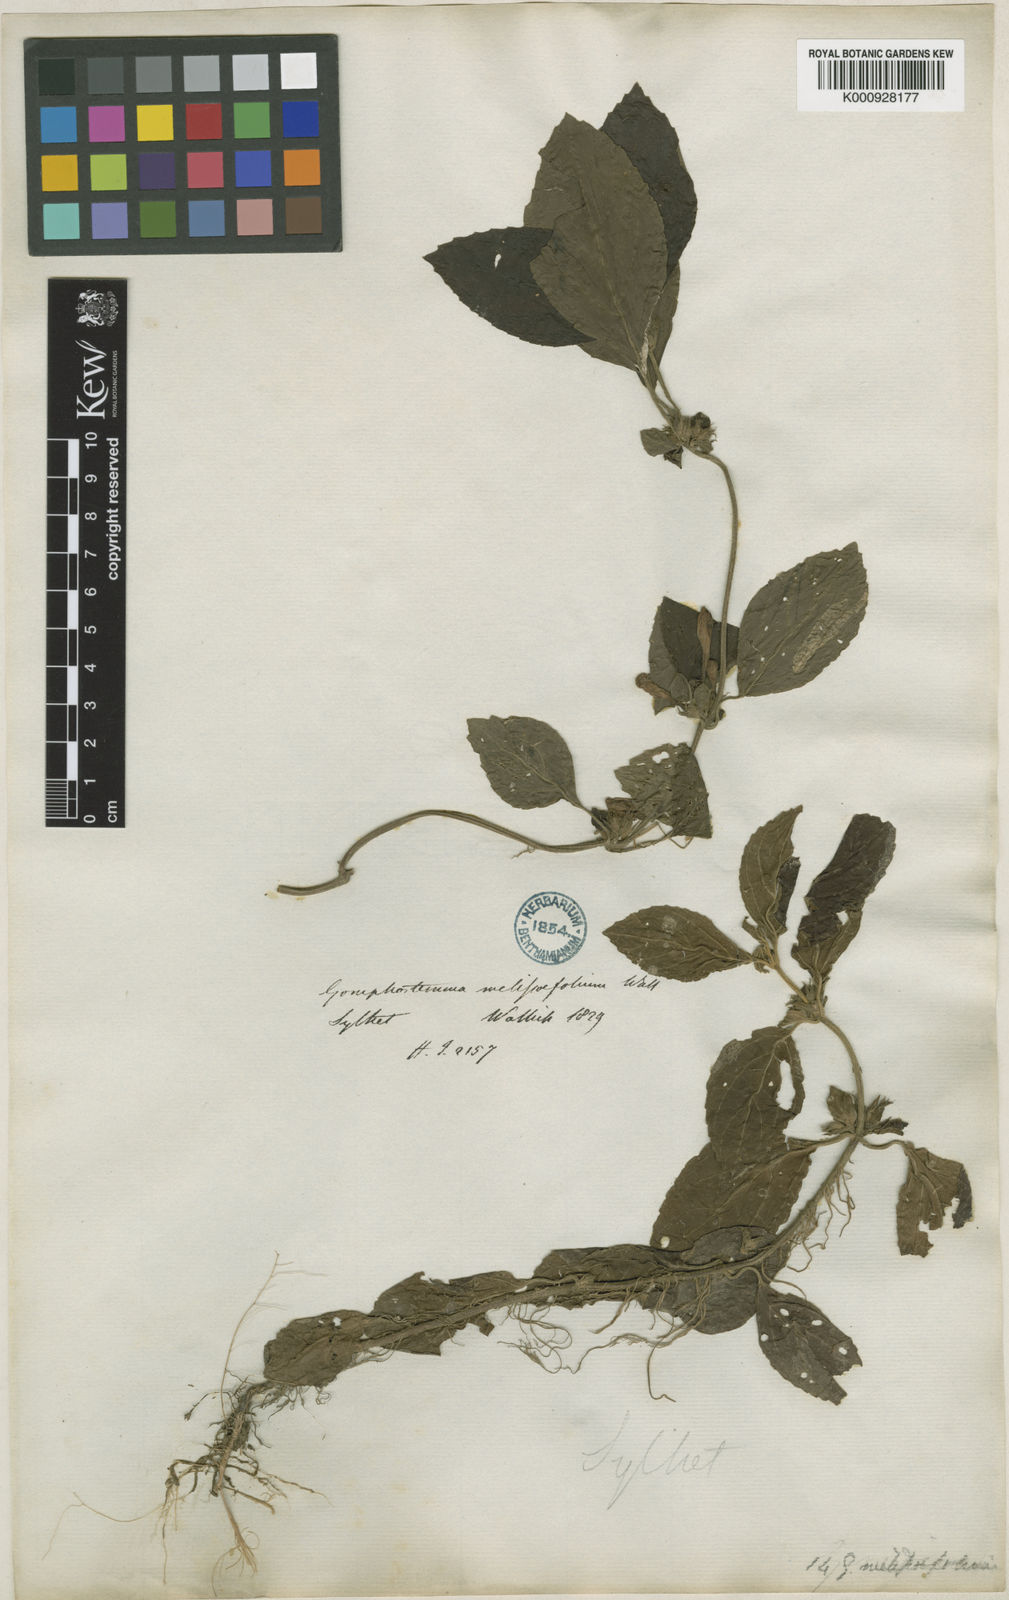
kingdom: Plantae
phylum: Tracheophyta
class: Magnoliopsida
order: Lamiales
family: Lamiaceae
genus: Gomphostemma
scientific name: Gomphostemma melissifolium
